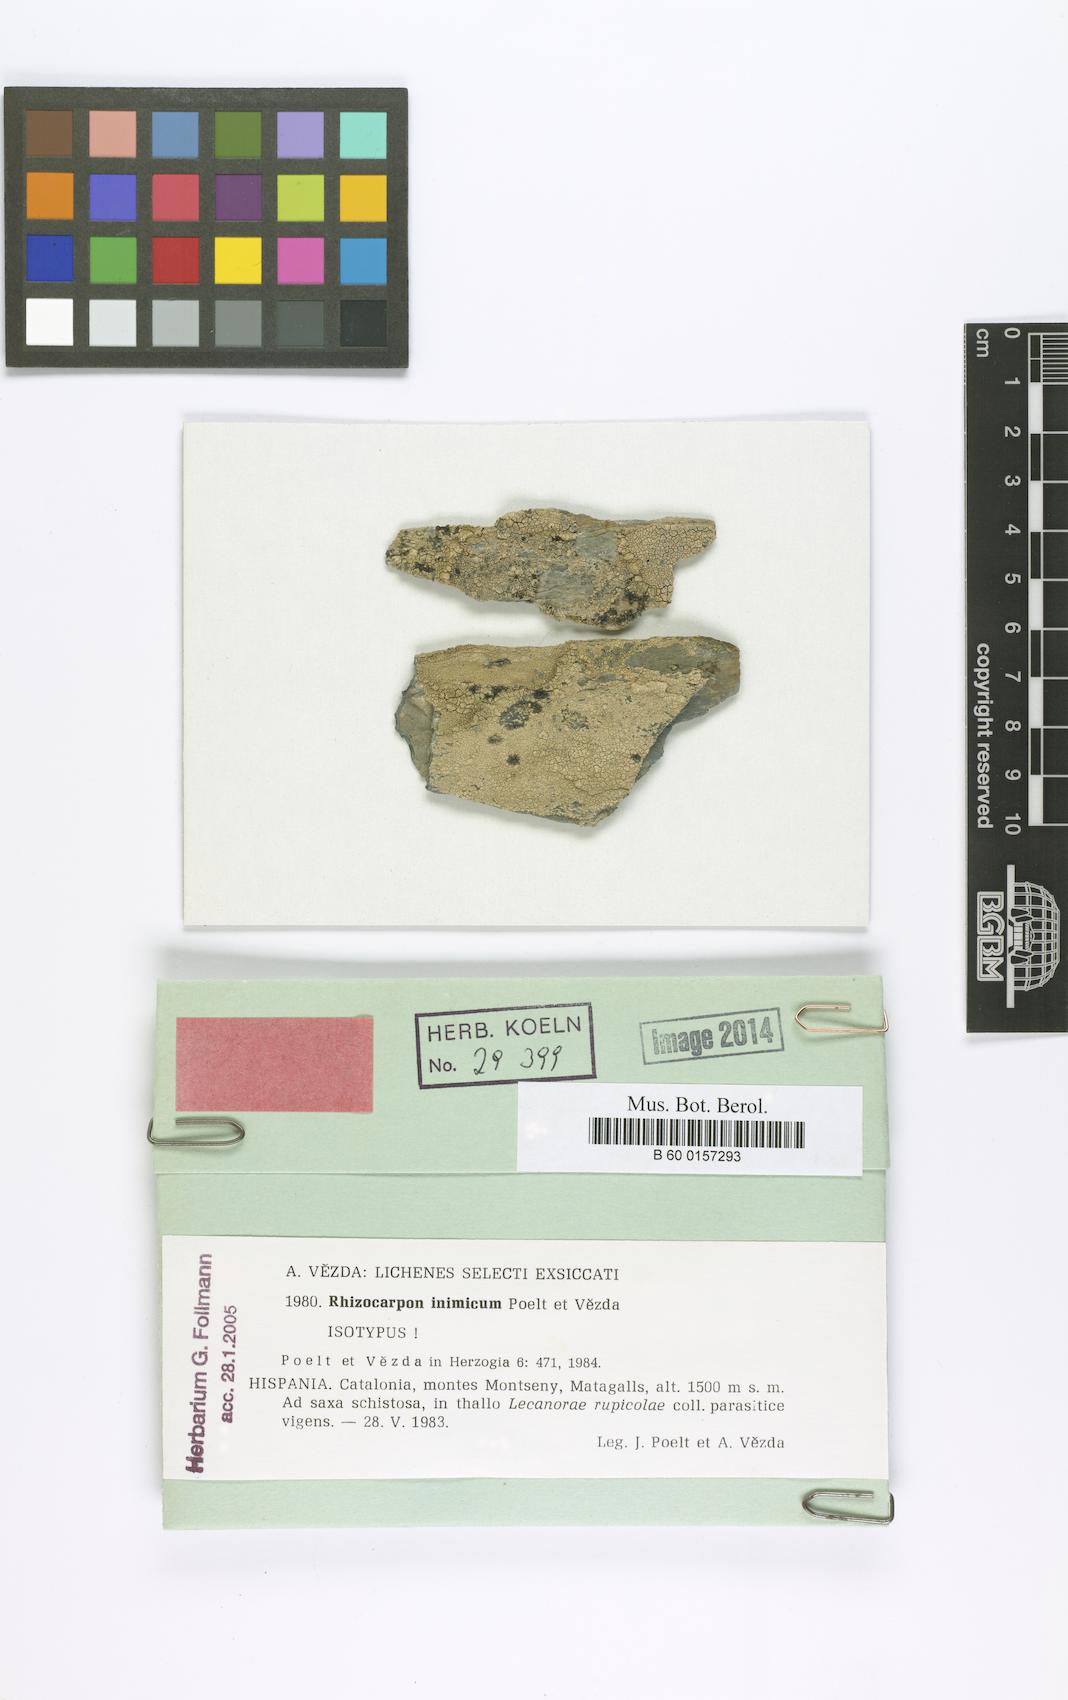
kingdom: Fungi
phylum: Ascomycota
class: Lecanoromycetes
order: Rhizocarpales
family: Rhizocarpaceae
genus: Rhizocarpon
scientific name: Rhizocarpon inimicum
